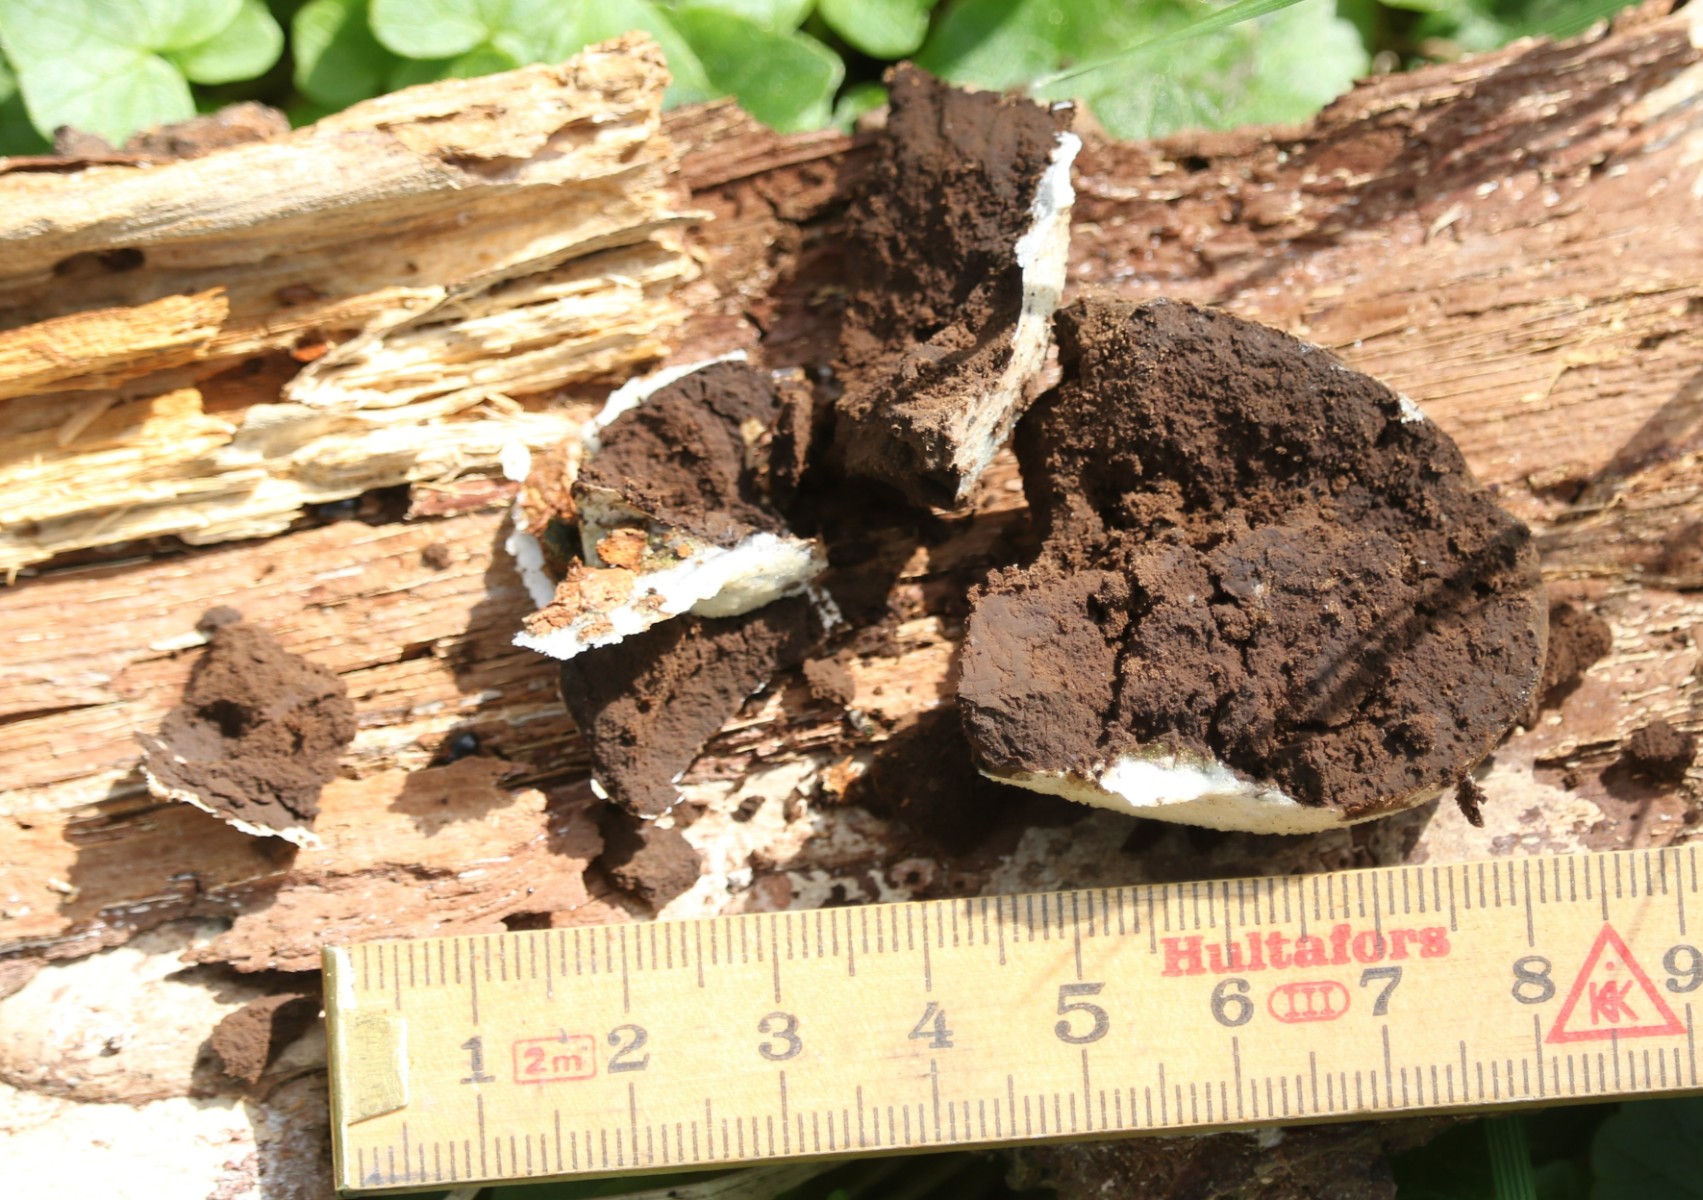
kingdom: Protozoa
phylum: Mycetozoa
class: Myxomycetes
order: Cribrariales
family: Tubiferaceae
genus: Reticularia
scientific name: Reticularia lycoperdon
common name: skinnende støvpude
